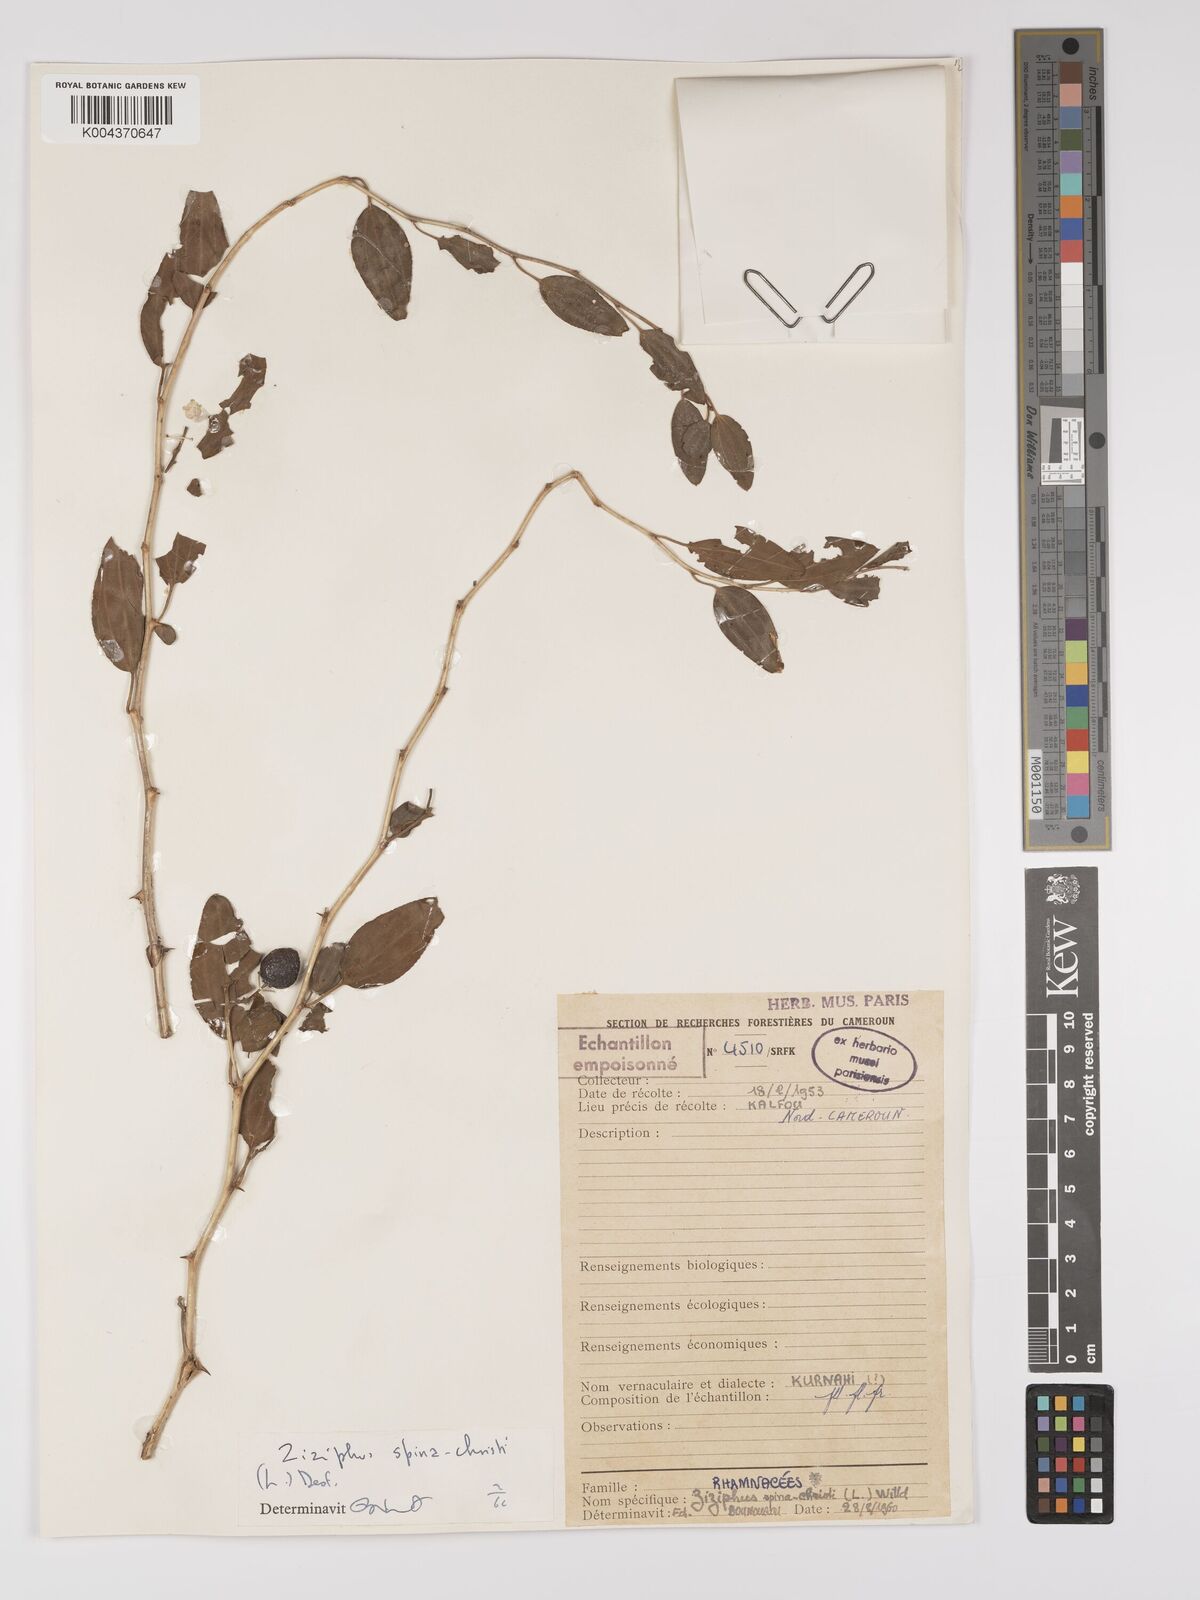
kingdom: Plantae
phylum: Tracheophyta
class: Magnoliopsida
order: Rosales
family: Rhamnaceae
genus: Ziziphus
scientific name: Ziziphus spina-christi
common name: Syrian christ-thorn
